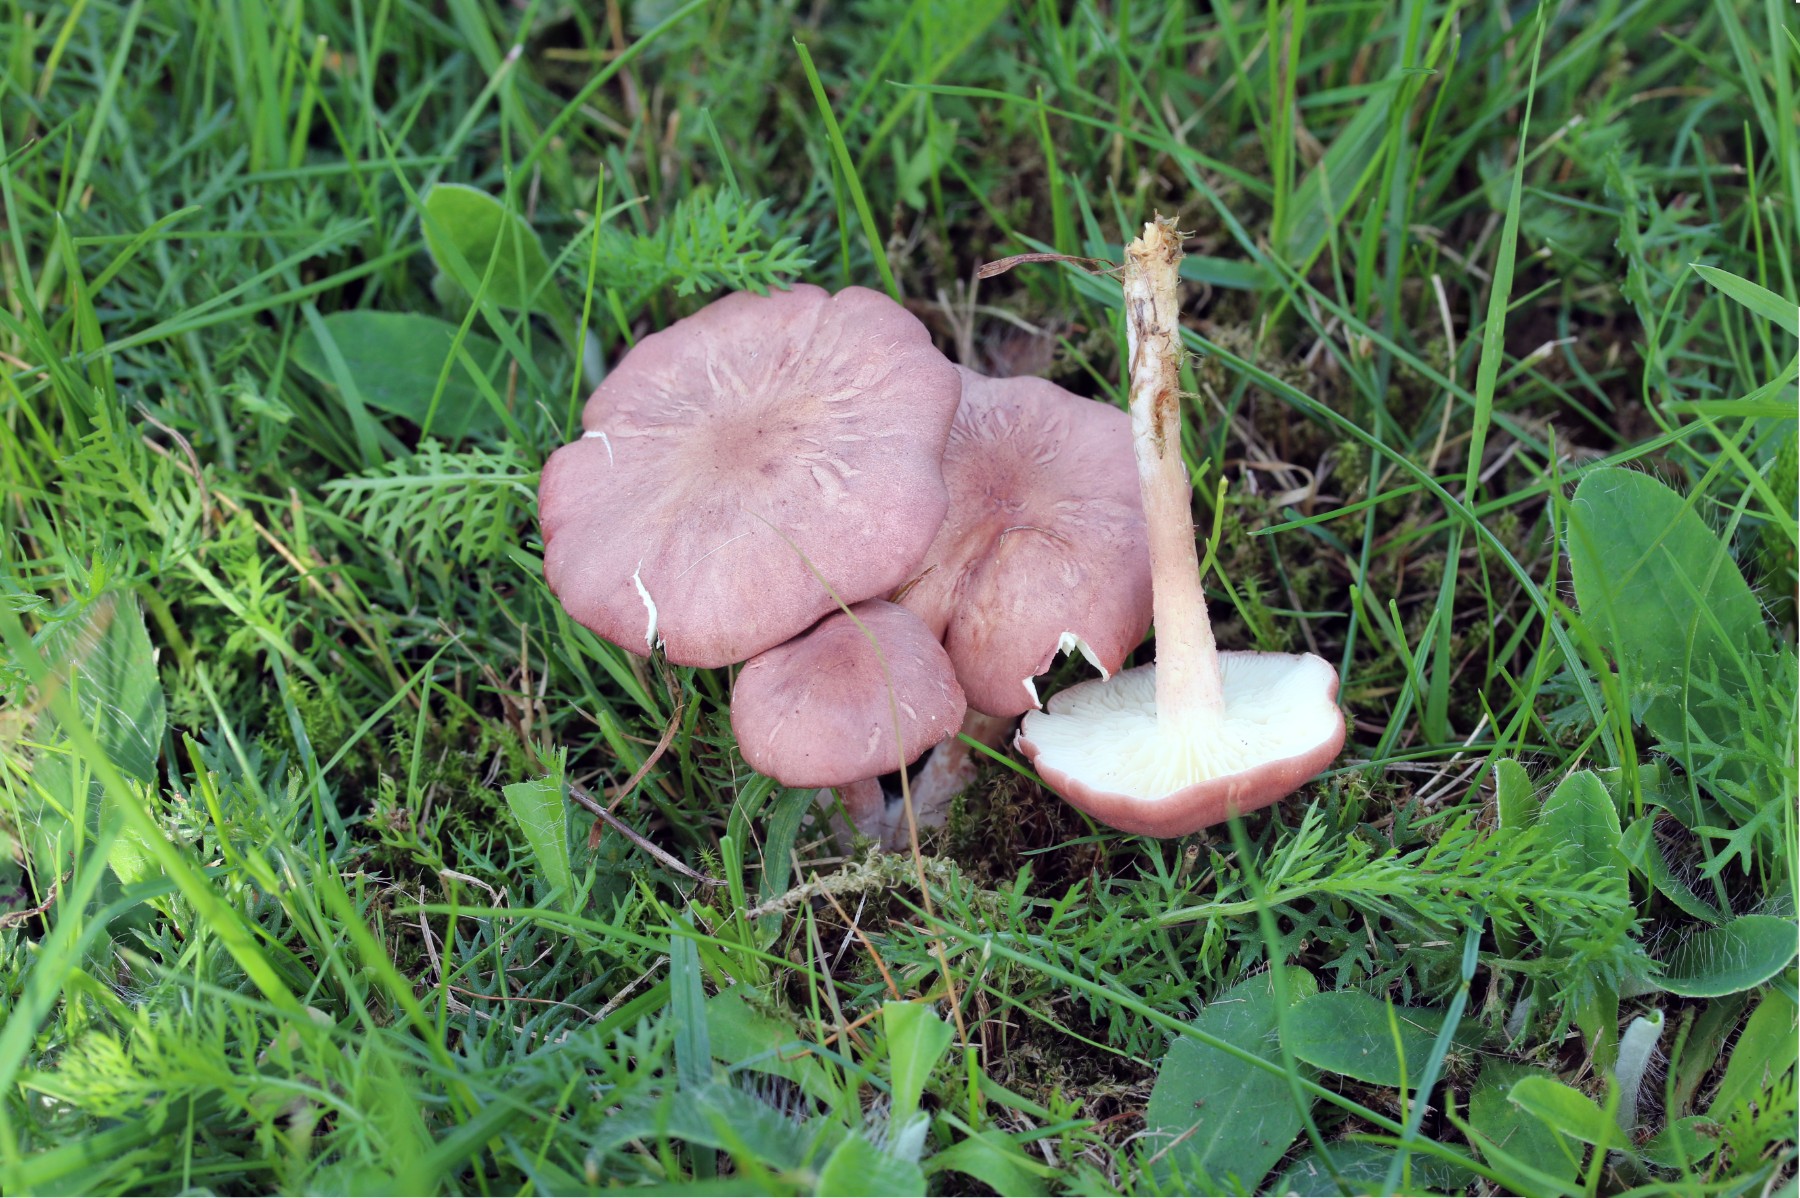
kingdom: Fungi
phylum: Basidiomycota
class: Agaricomycetes
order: Agaricales
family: Lyophyllaceae
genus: Calocybe
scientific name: Calocybe carnea
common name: rosa fagerhat
